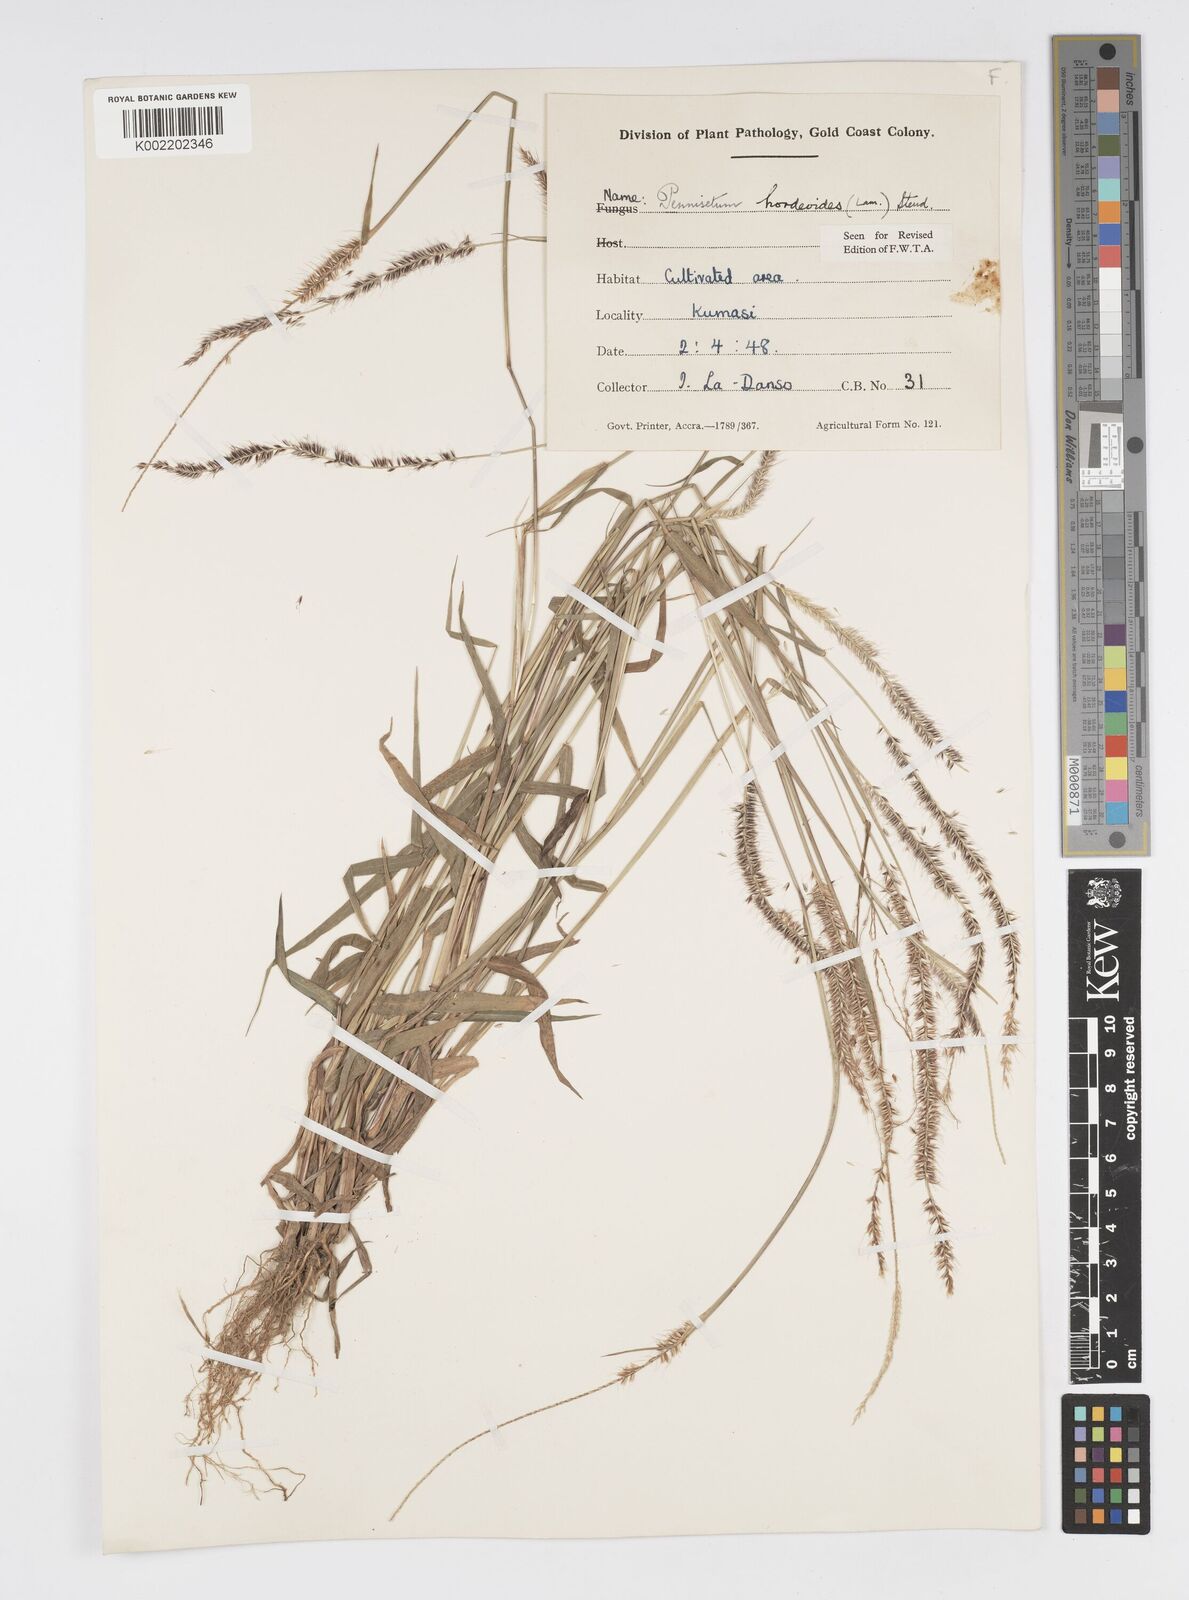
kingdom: Plantae
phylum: Tracheophyta
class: Liliopsida
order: Poales
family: Poaceae
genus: Cenchrus
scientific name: Cenchrus hordeoides
